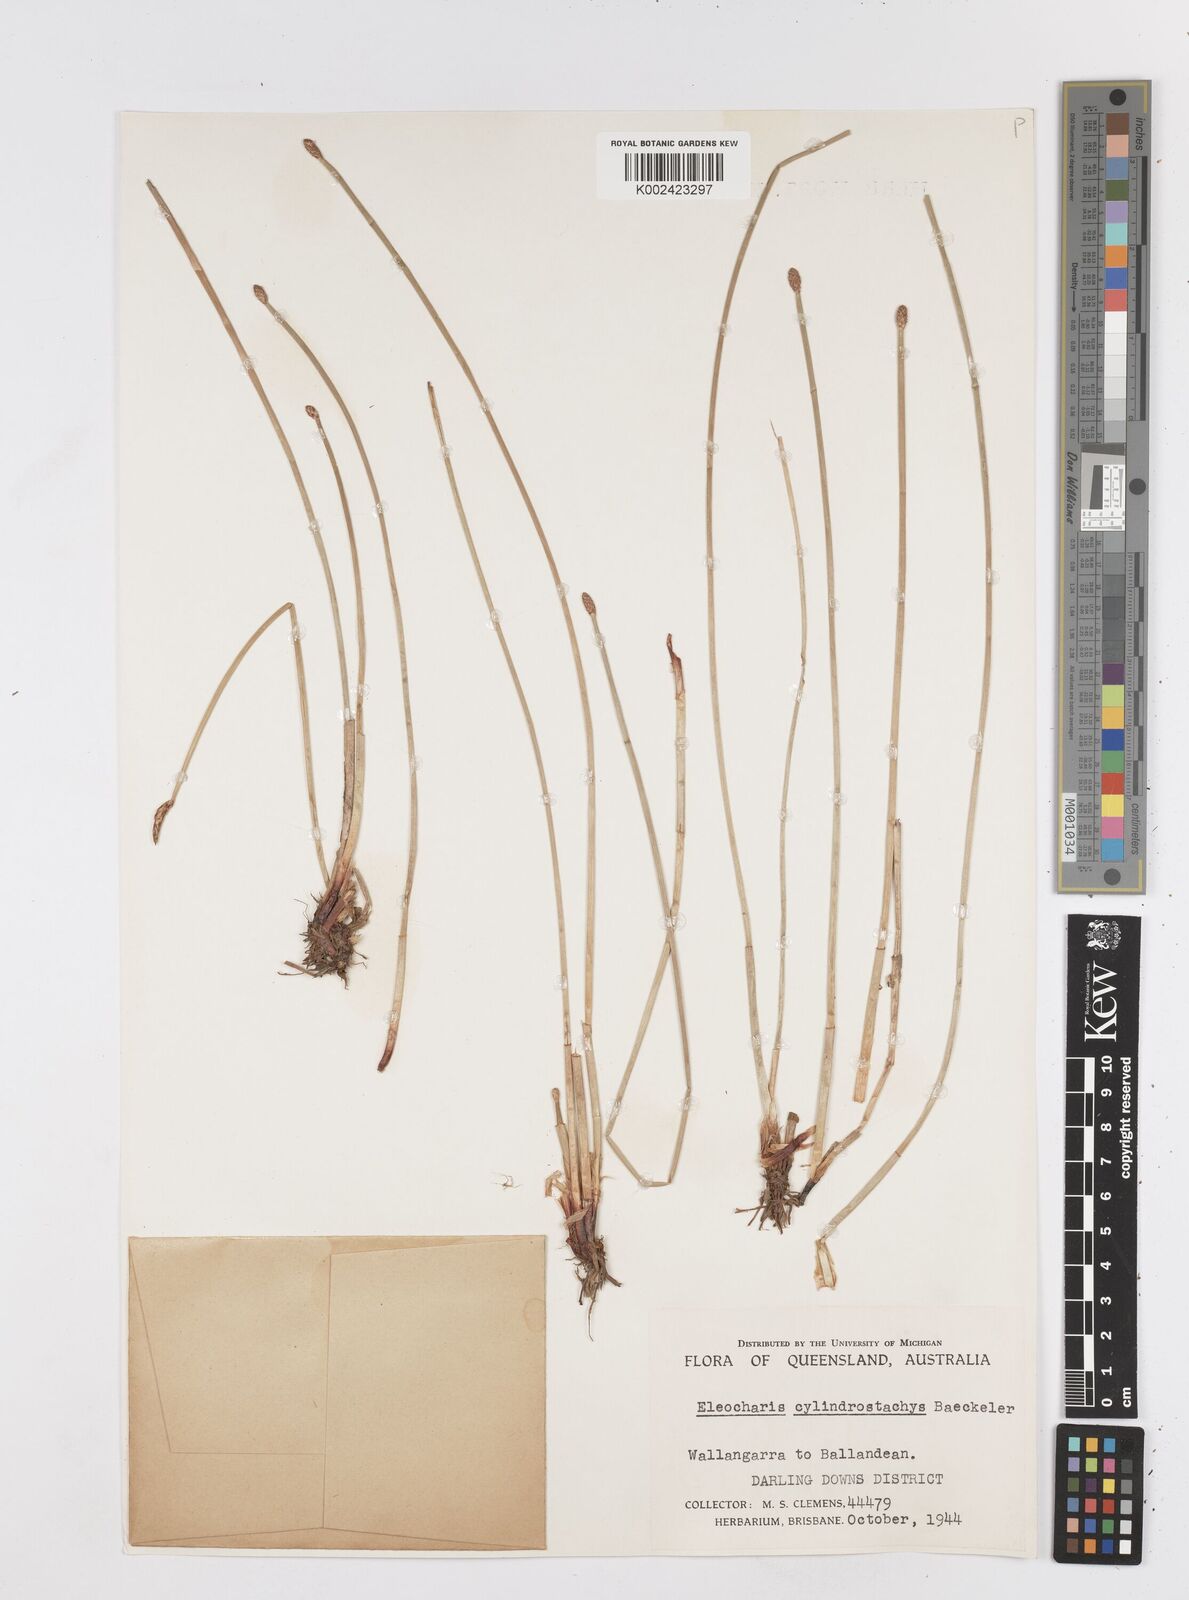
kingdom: Plantae
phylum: Tracheophyta
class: Liliopsida
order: Poales
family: Cyperaceae
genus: Eleocharis
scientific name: Eleocharis cylindrostachys
